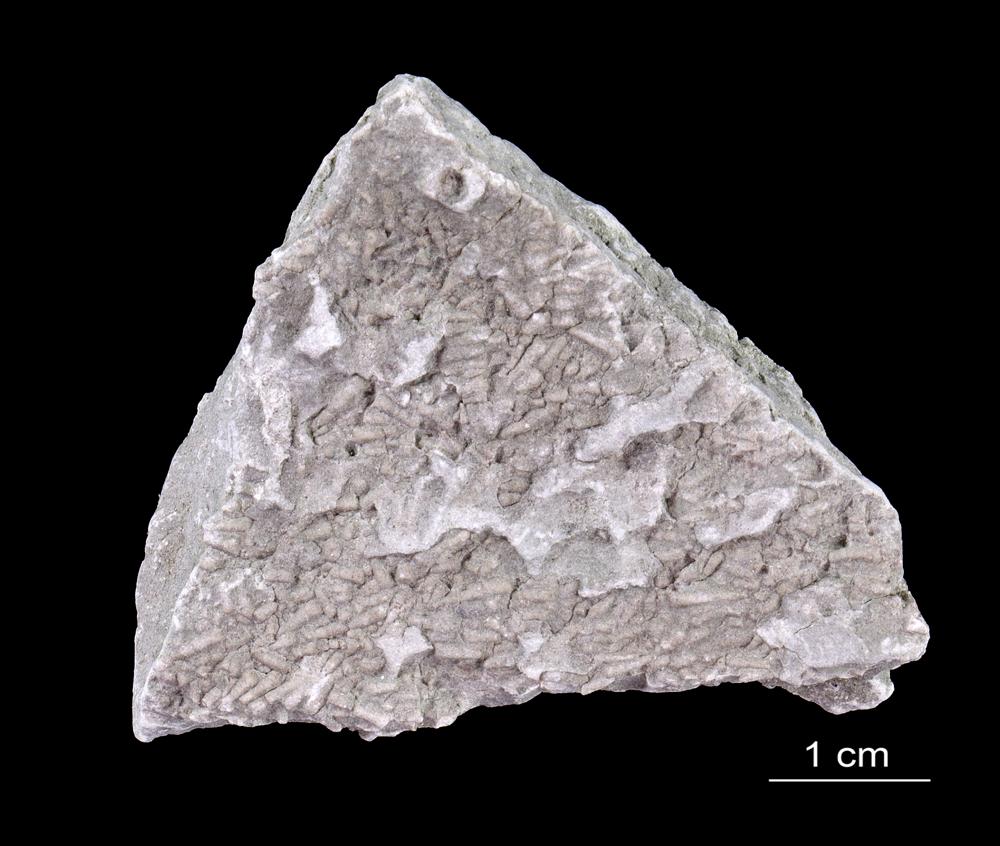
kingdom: Animalia
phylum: Annelida
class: Polychaeta
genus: Volborthella
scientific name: Volborthella tenuis
